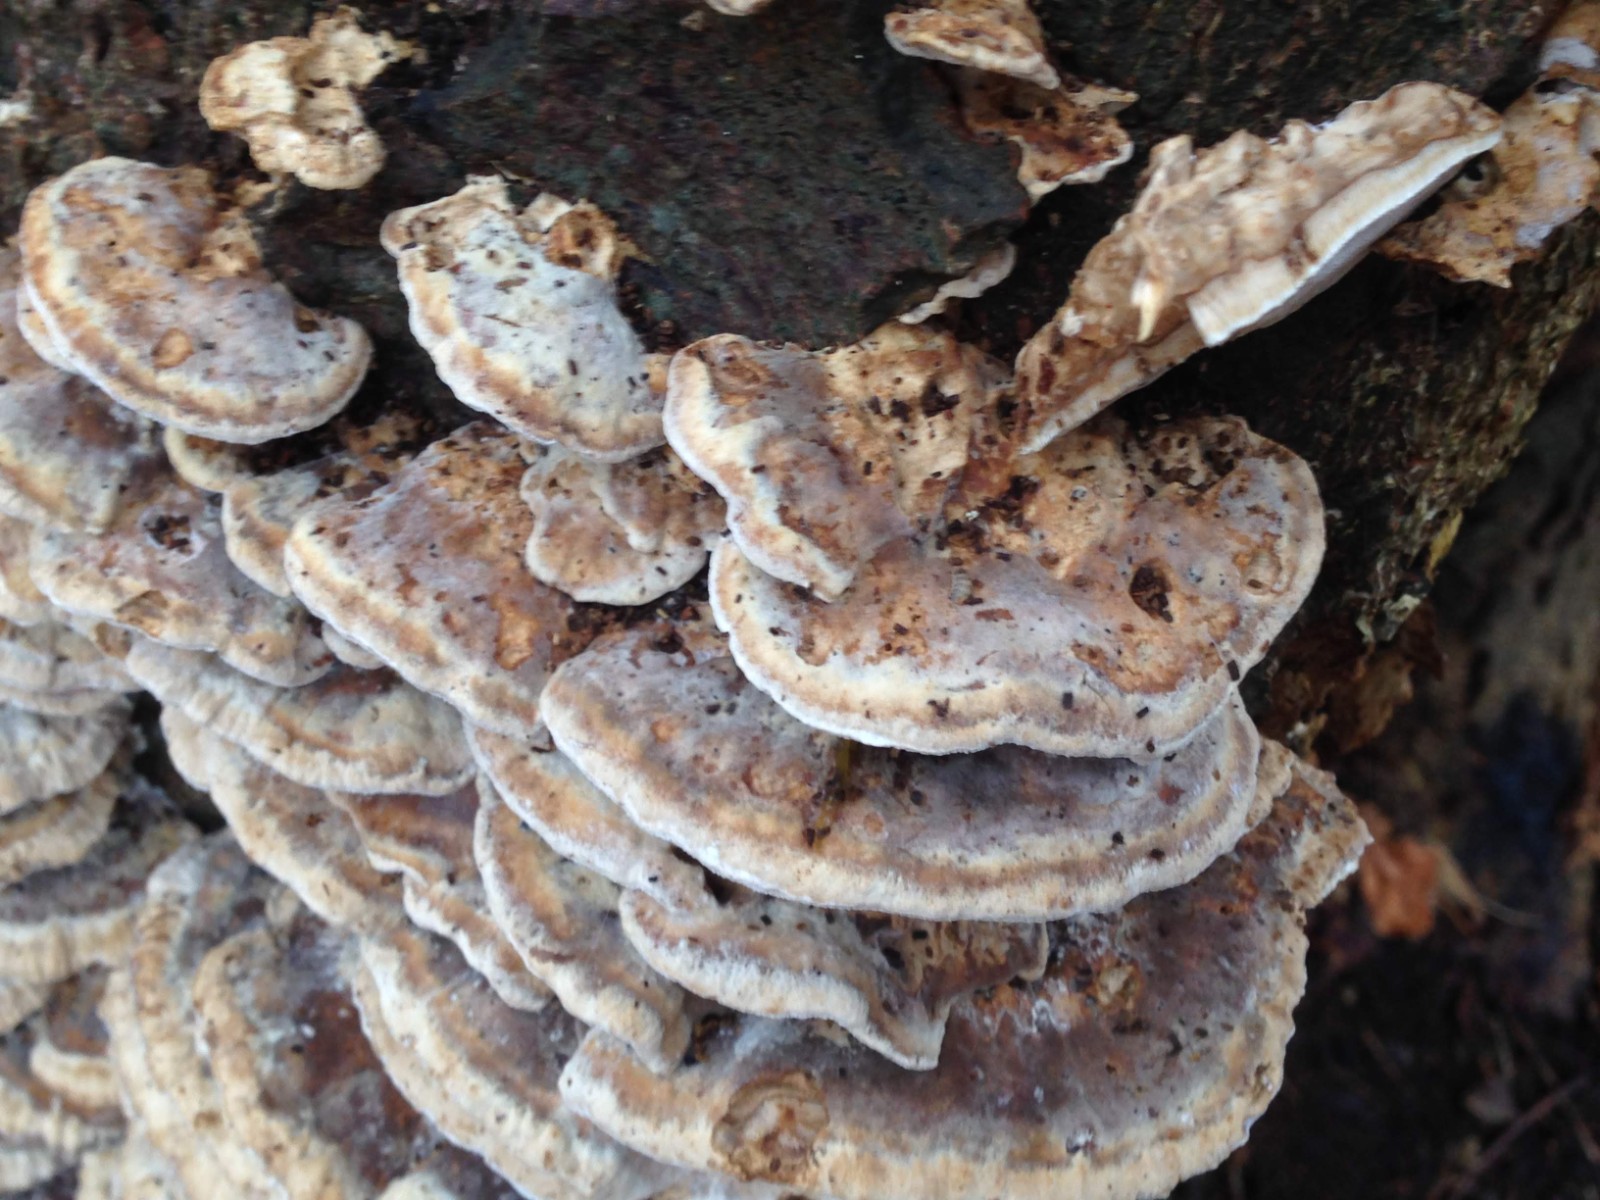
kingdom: Fungi
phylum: Basidiomycota
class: Agaricomycetes
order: Polyporales
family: Phanerochaetaceae
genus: Bjerkandera
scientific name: Bjerkandera fumosa
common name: grågul sodporesvamp
